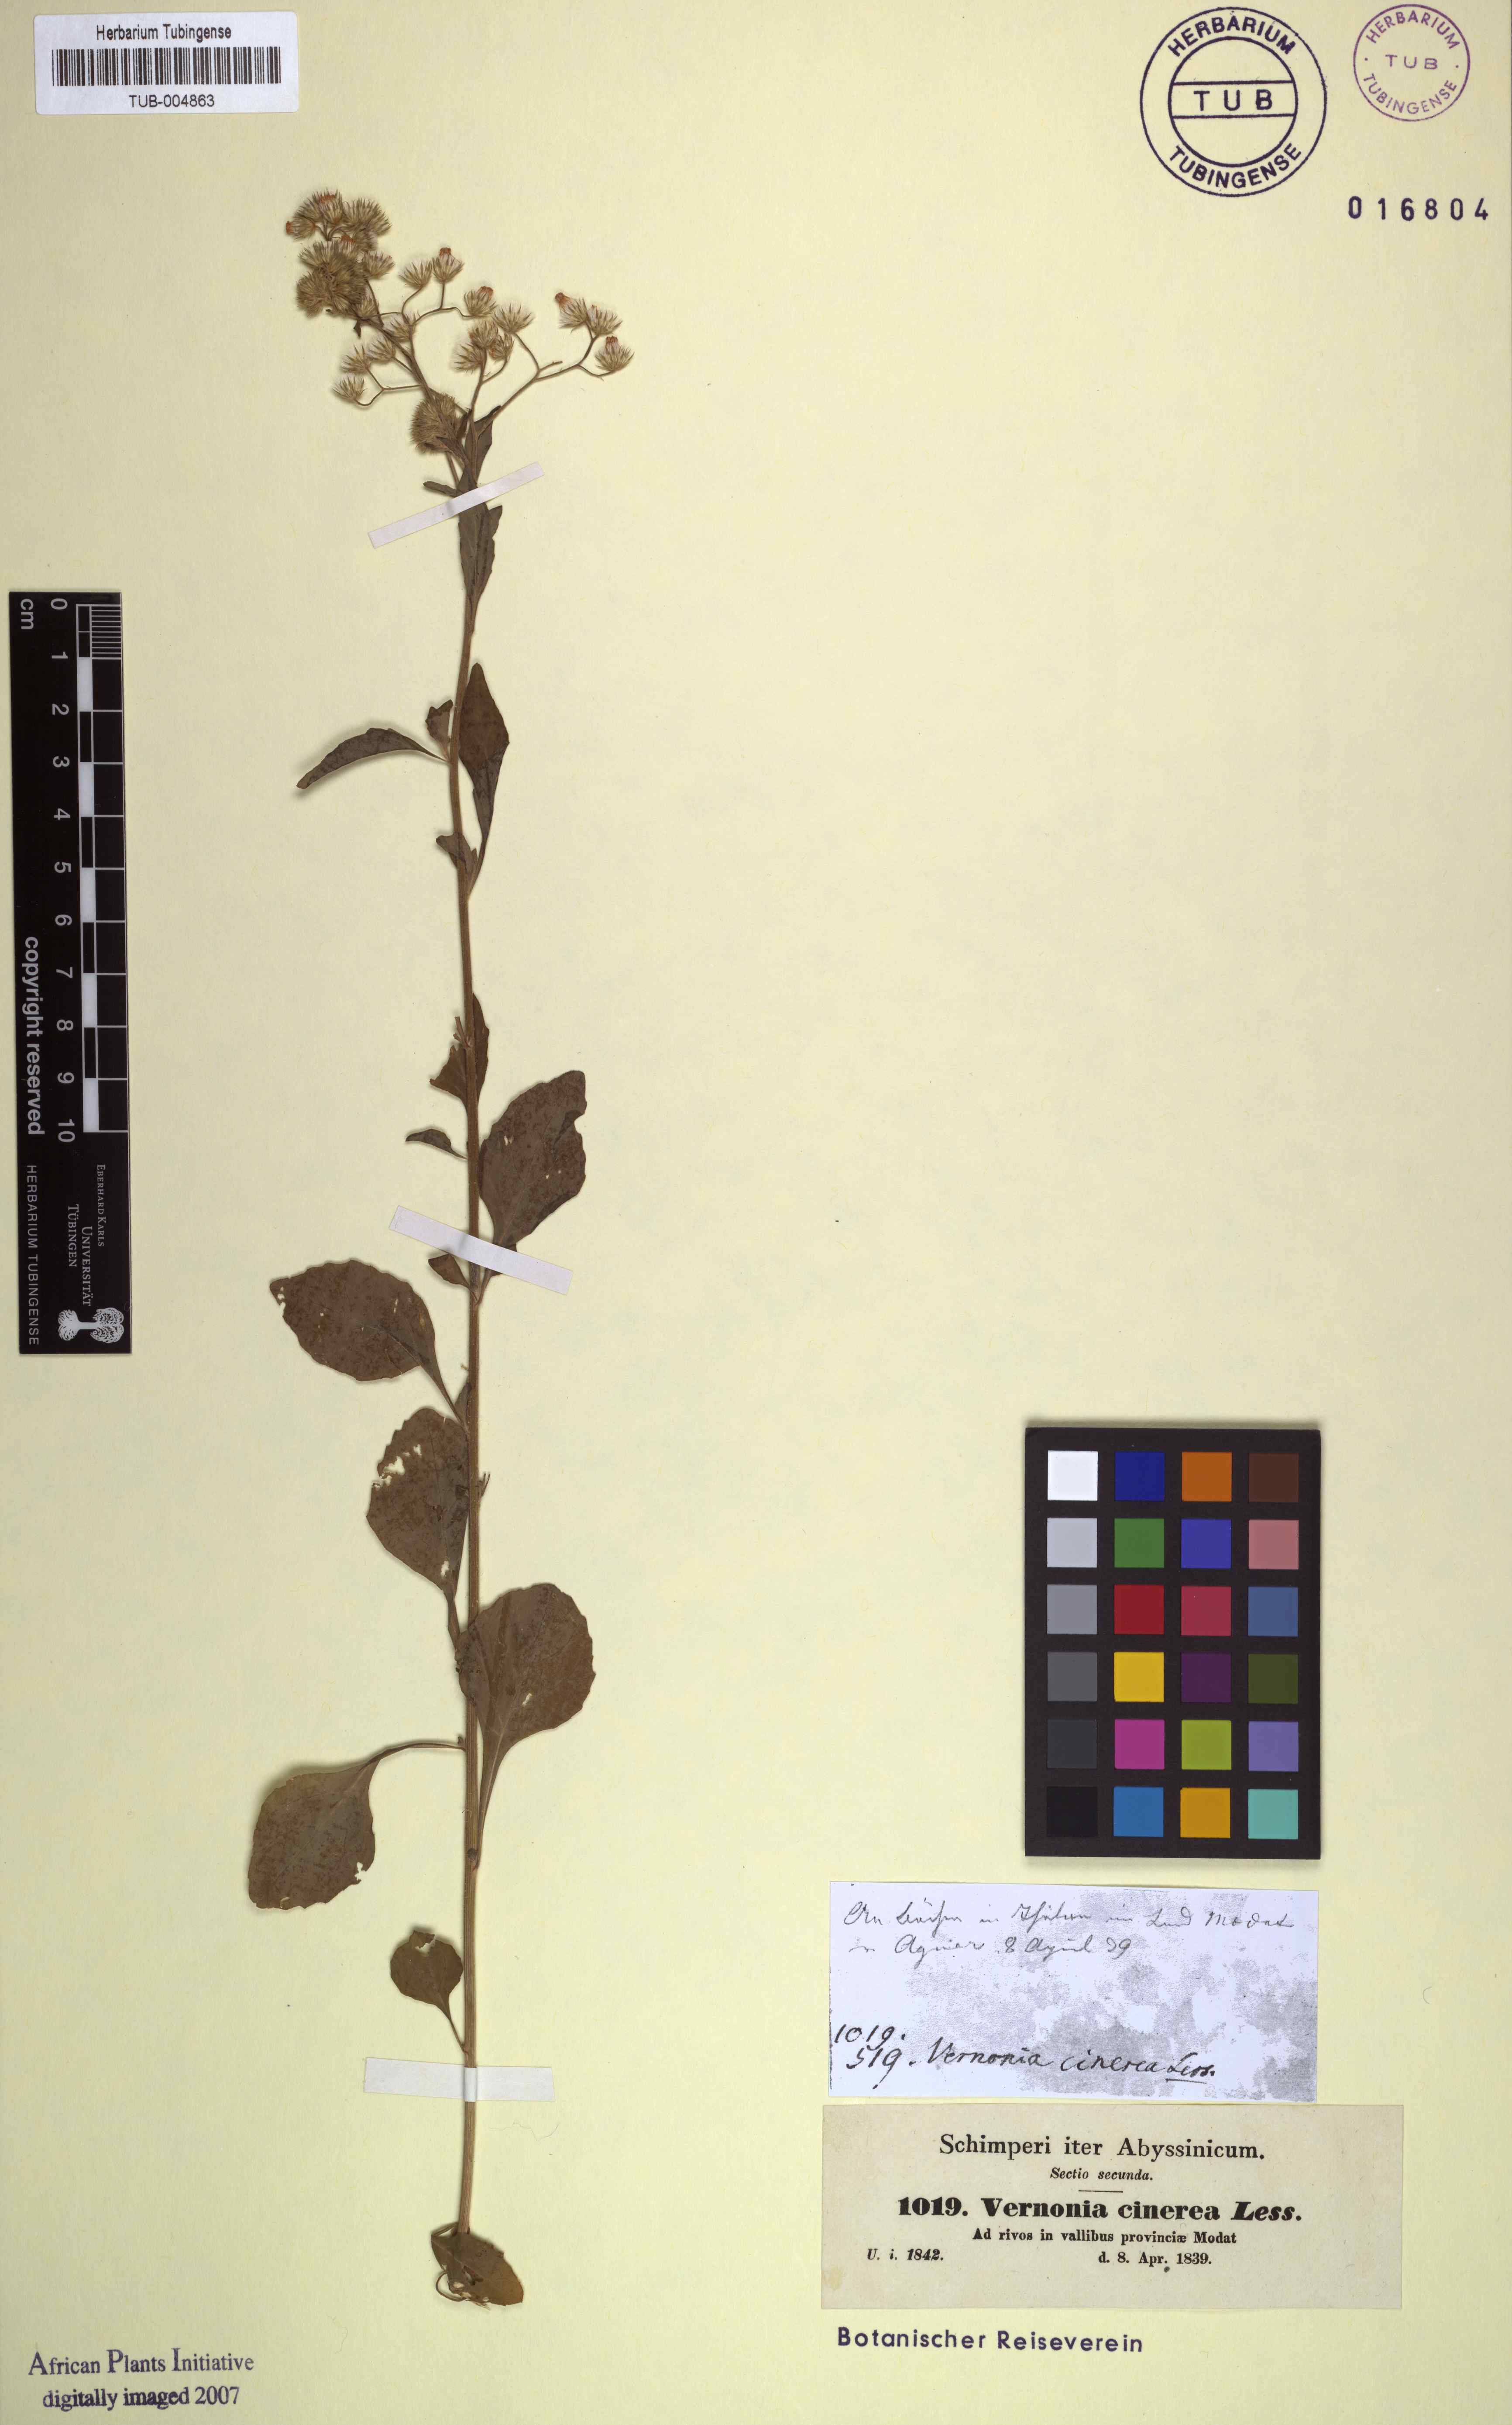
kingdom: Plantae
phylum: Tracheophyta
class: Magnoliopsida
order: Asterales
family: Asteraceae
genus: Cyanthillium
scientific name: Cyanthillium cinereum
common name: Little ironweed
